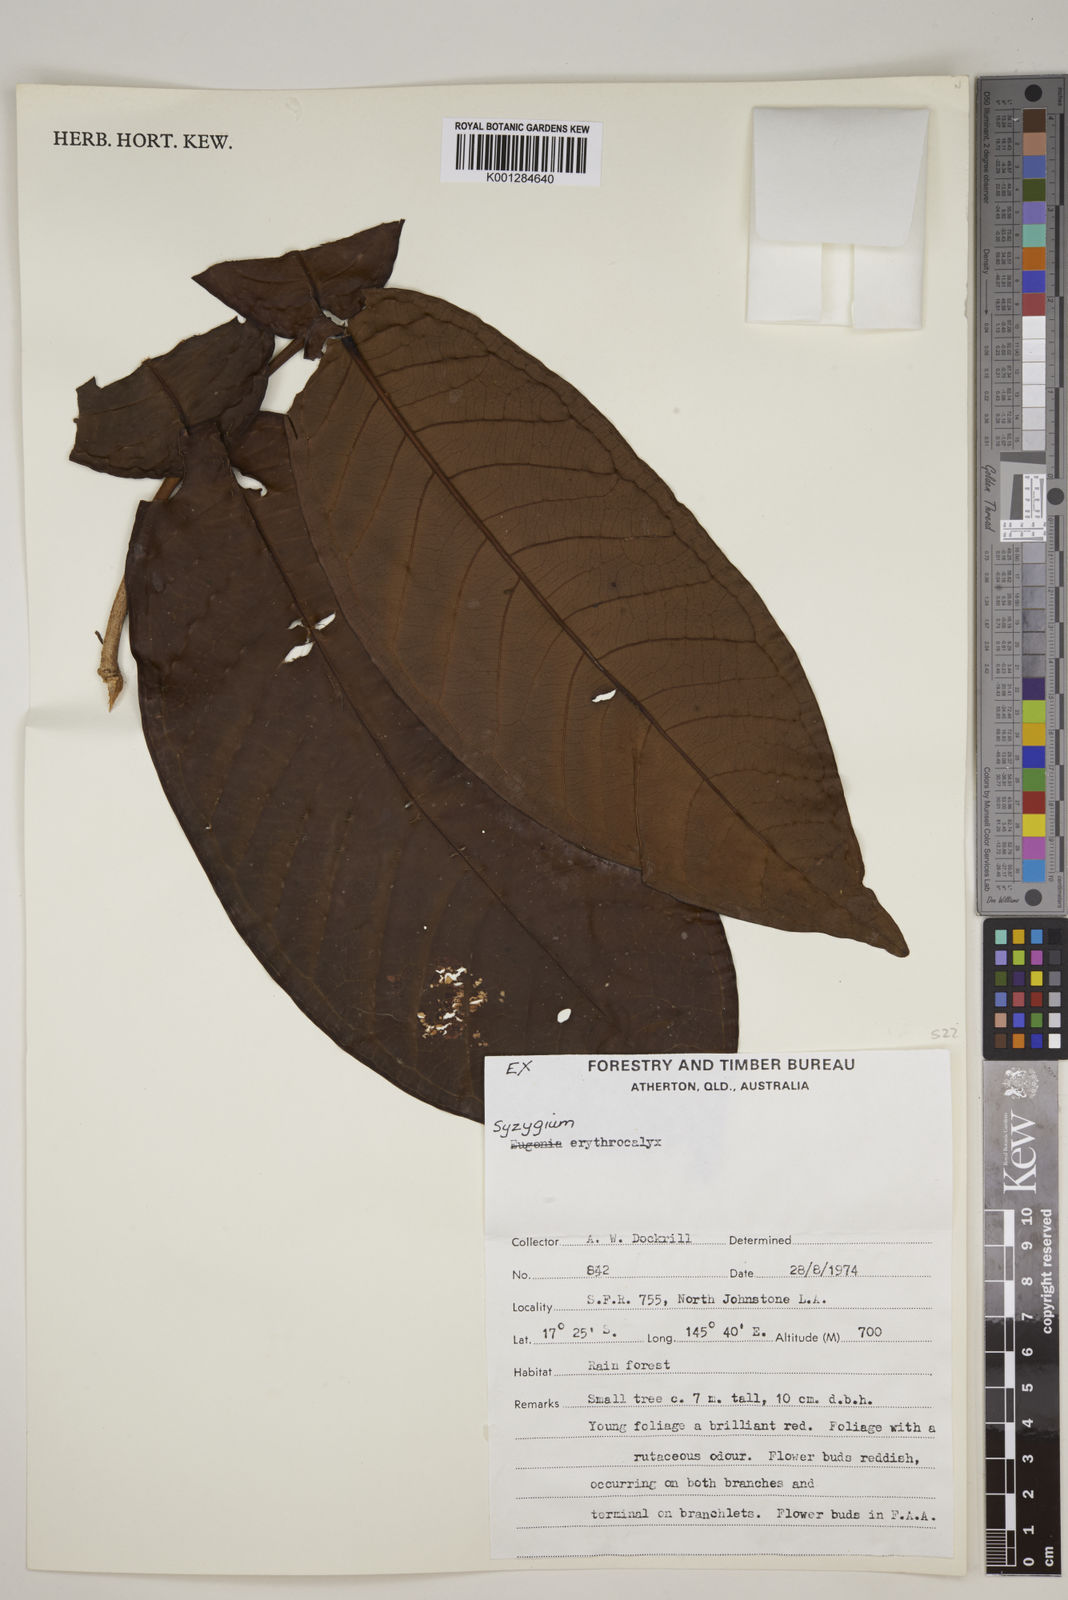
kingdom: Plantae
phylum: Tracheophyta
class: Magnoliopsida
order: Myrtales
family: Myrtaceae
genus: Syzygium
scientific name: Syzygium erythrocalyx
